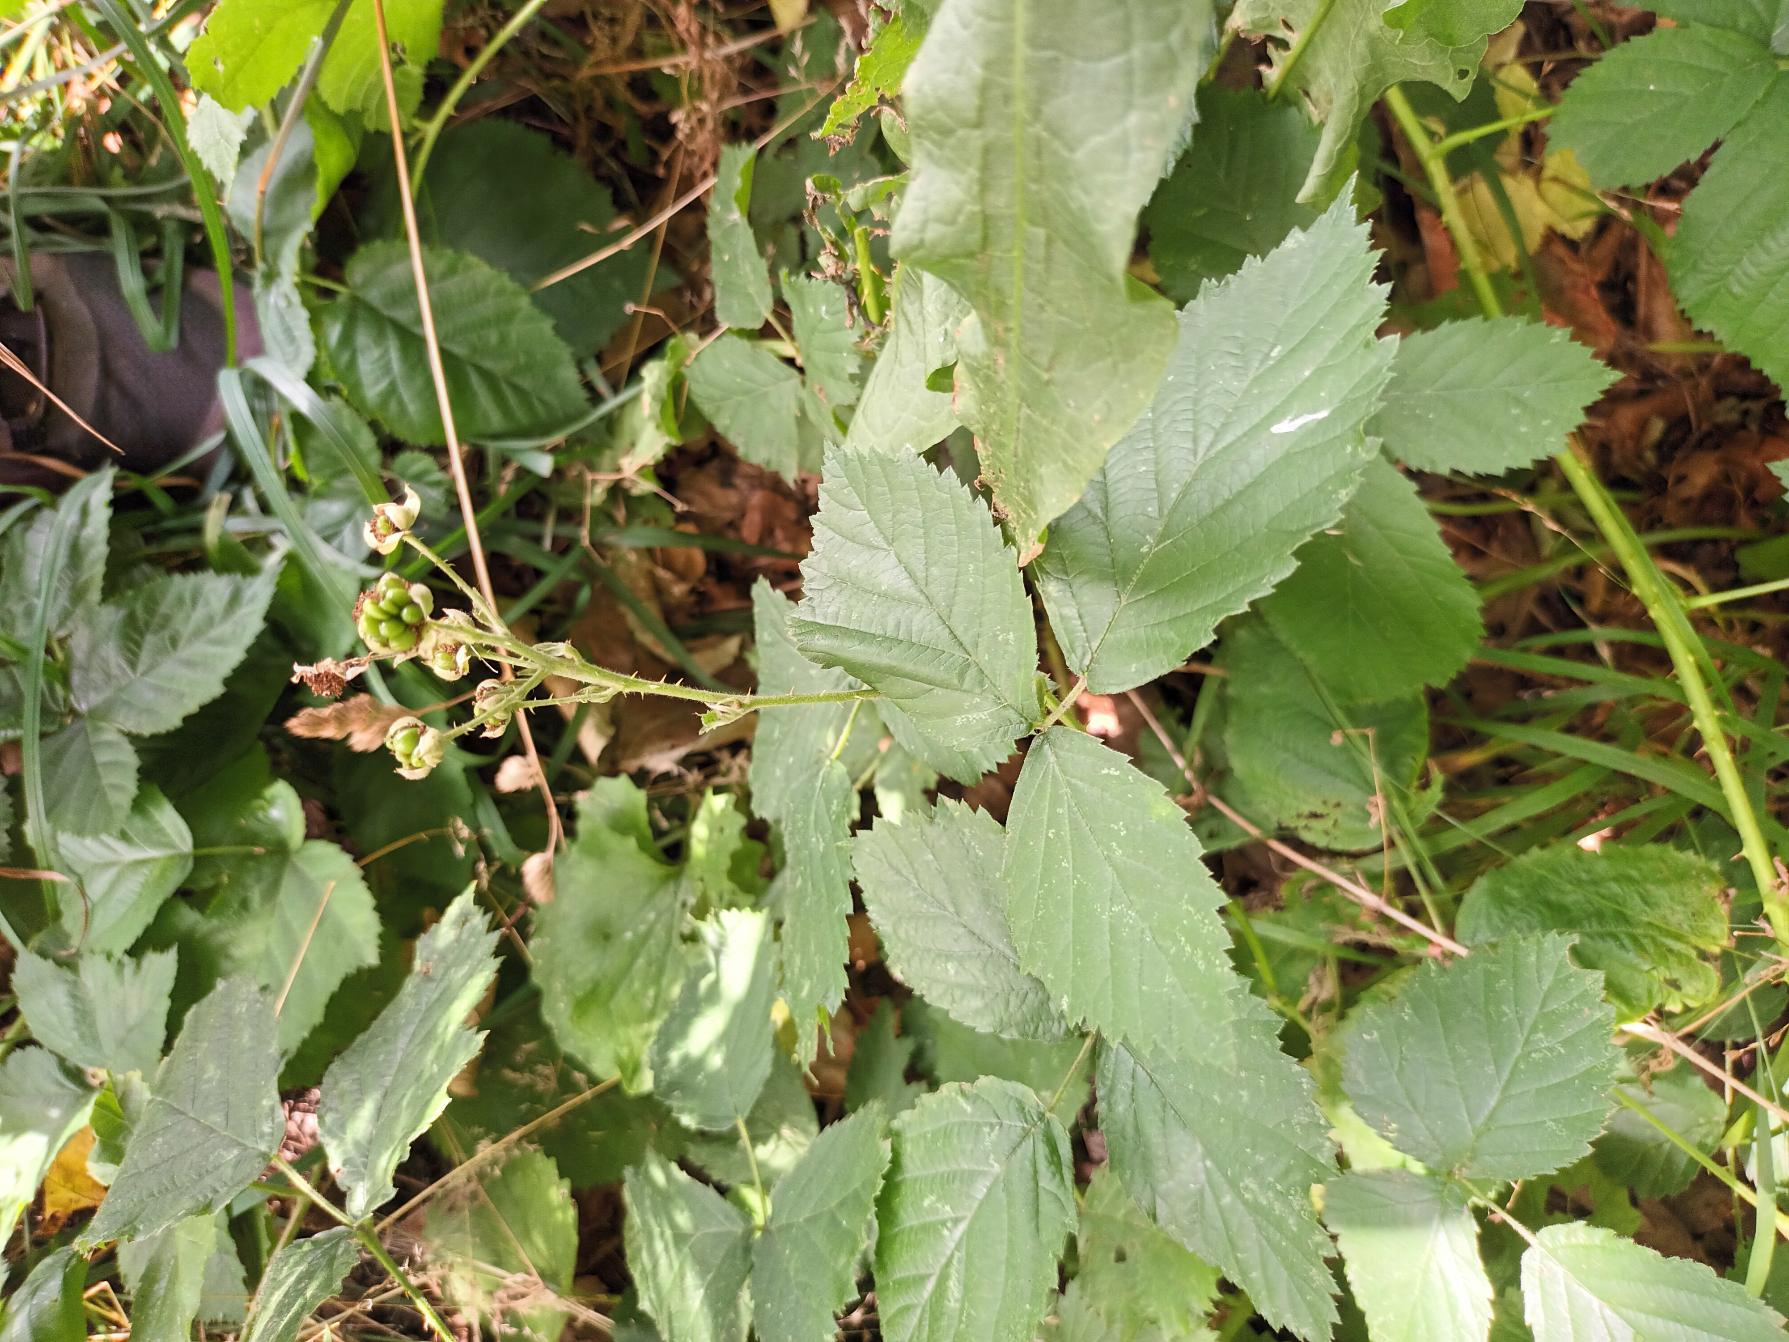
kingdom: Plantae
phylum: Tracheophyta
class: Magnoliopsida
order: Rosales
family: Rosaceae
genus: Rubus
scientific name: Rubus gothicus
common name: Spidsbladet hasselbrombær
